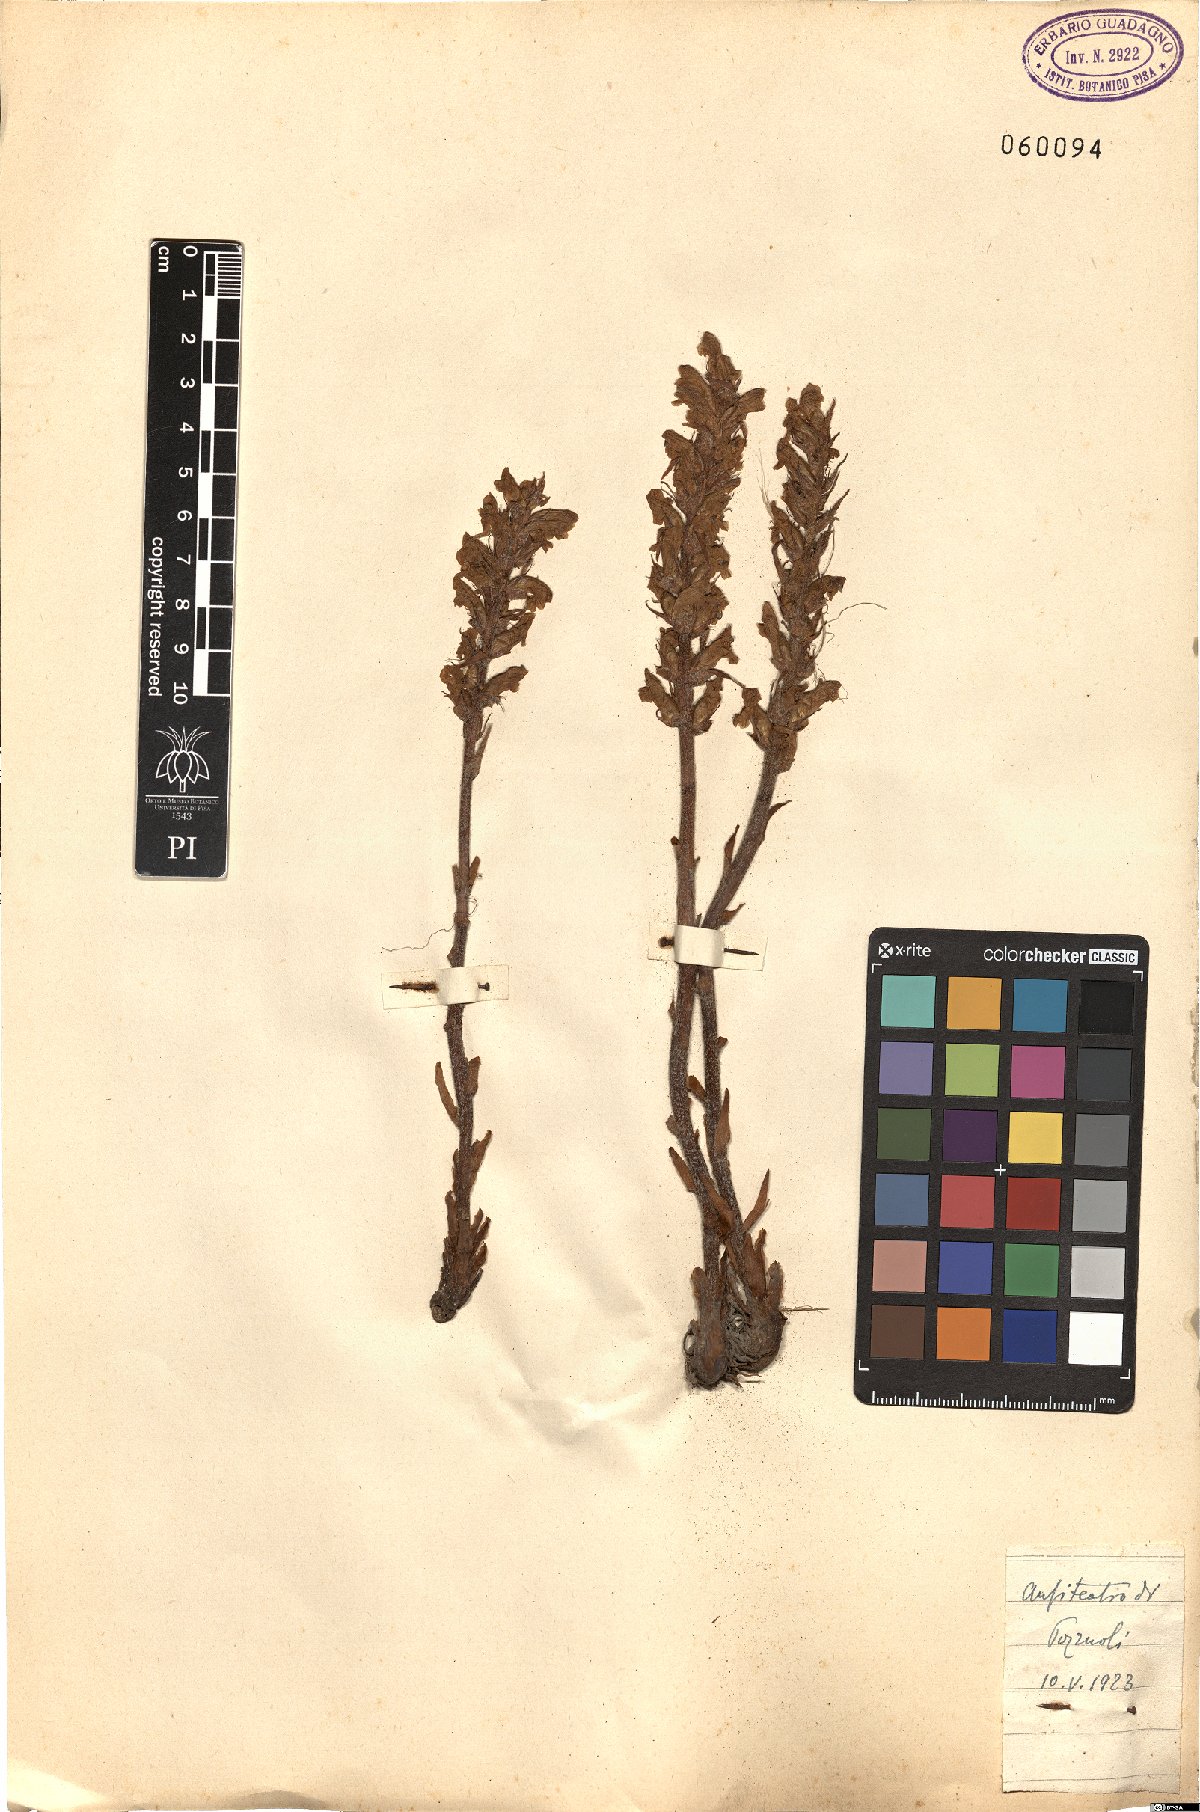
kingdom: Plantae
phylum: Tracheophyta
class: Magnoliopsida
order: Lamiales
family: Orobanchaceae
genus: Orobanche
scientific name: Orobanche
